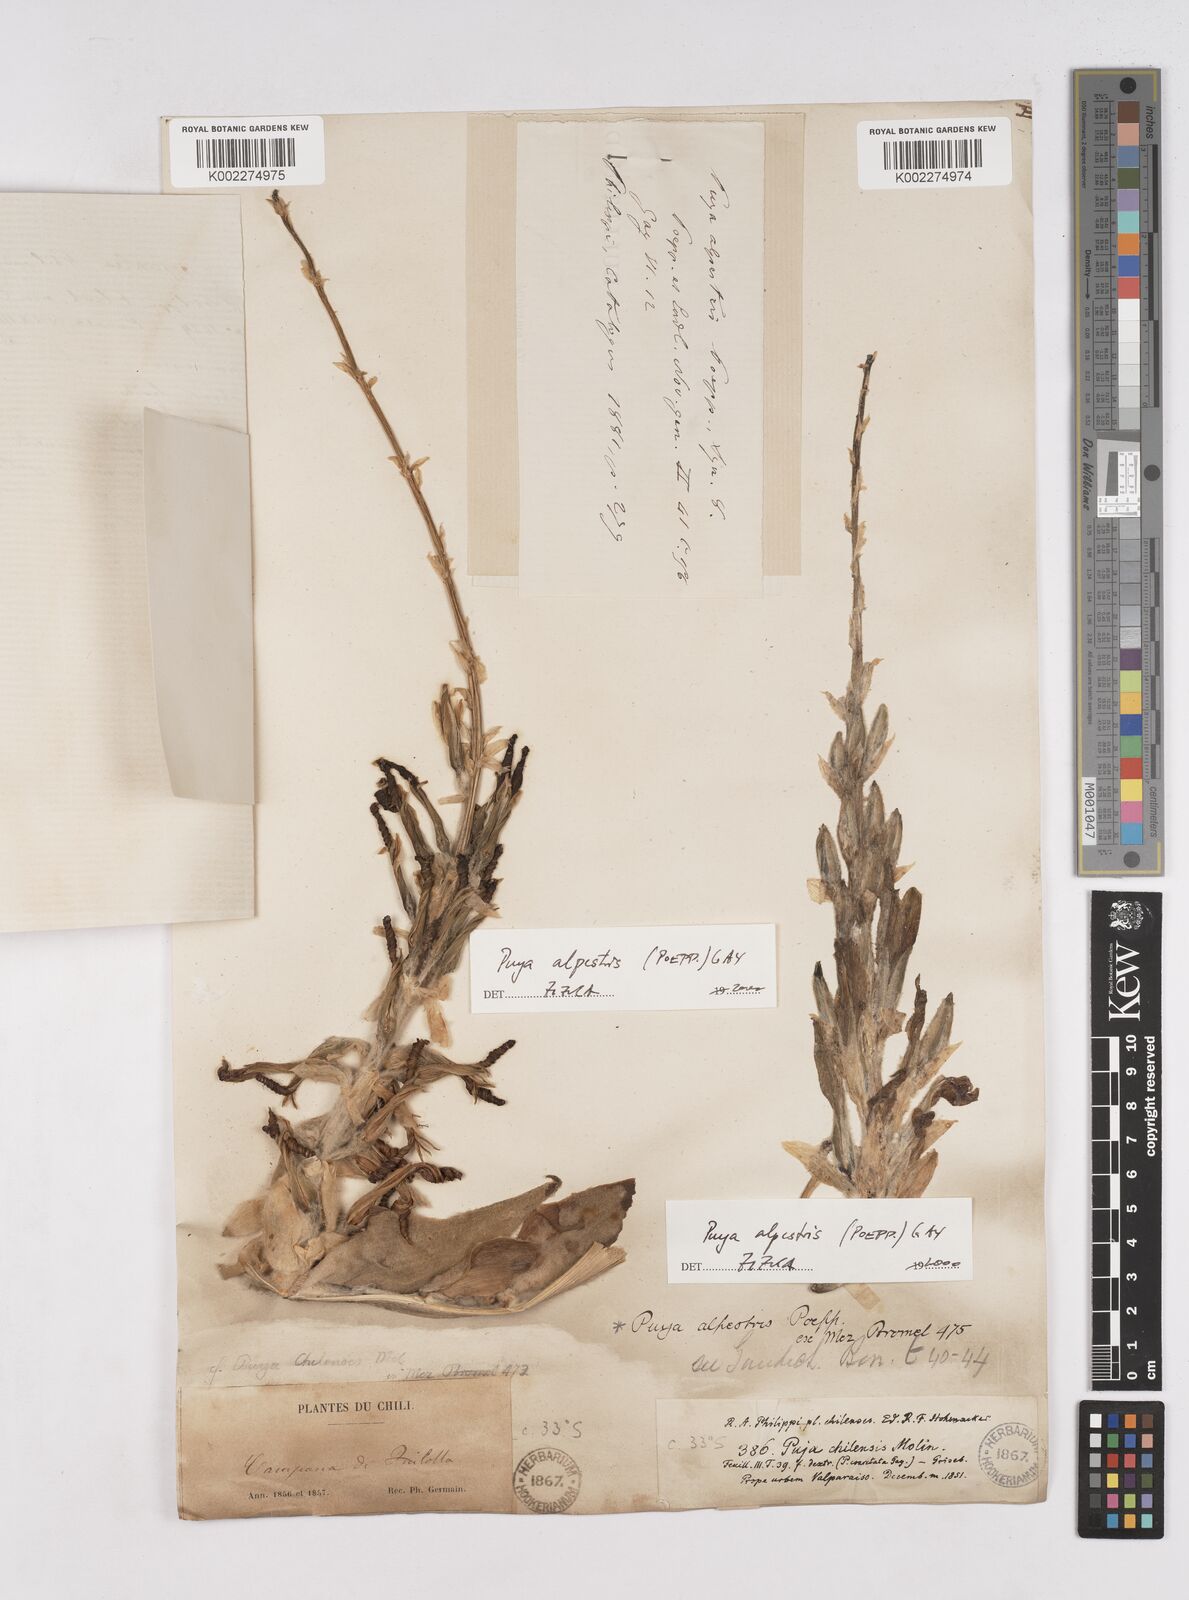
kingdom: Plantae
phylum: Tracheophyta
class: Liliopsida
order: Poales
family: Bromeliaceae
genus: Puya
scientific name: Puya berteroniana
